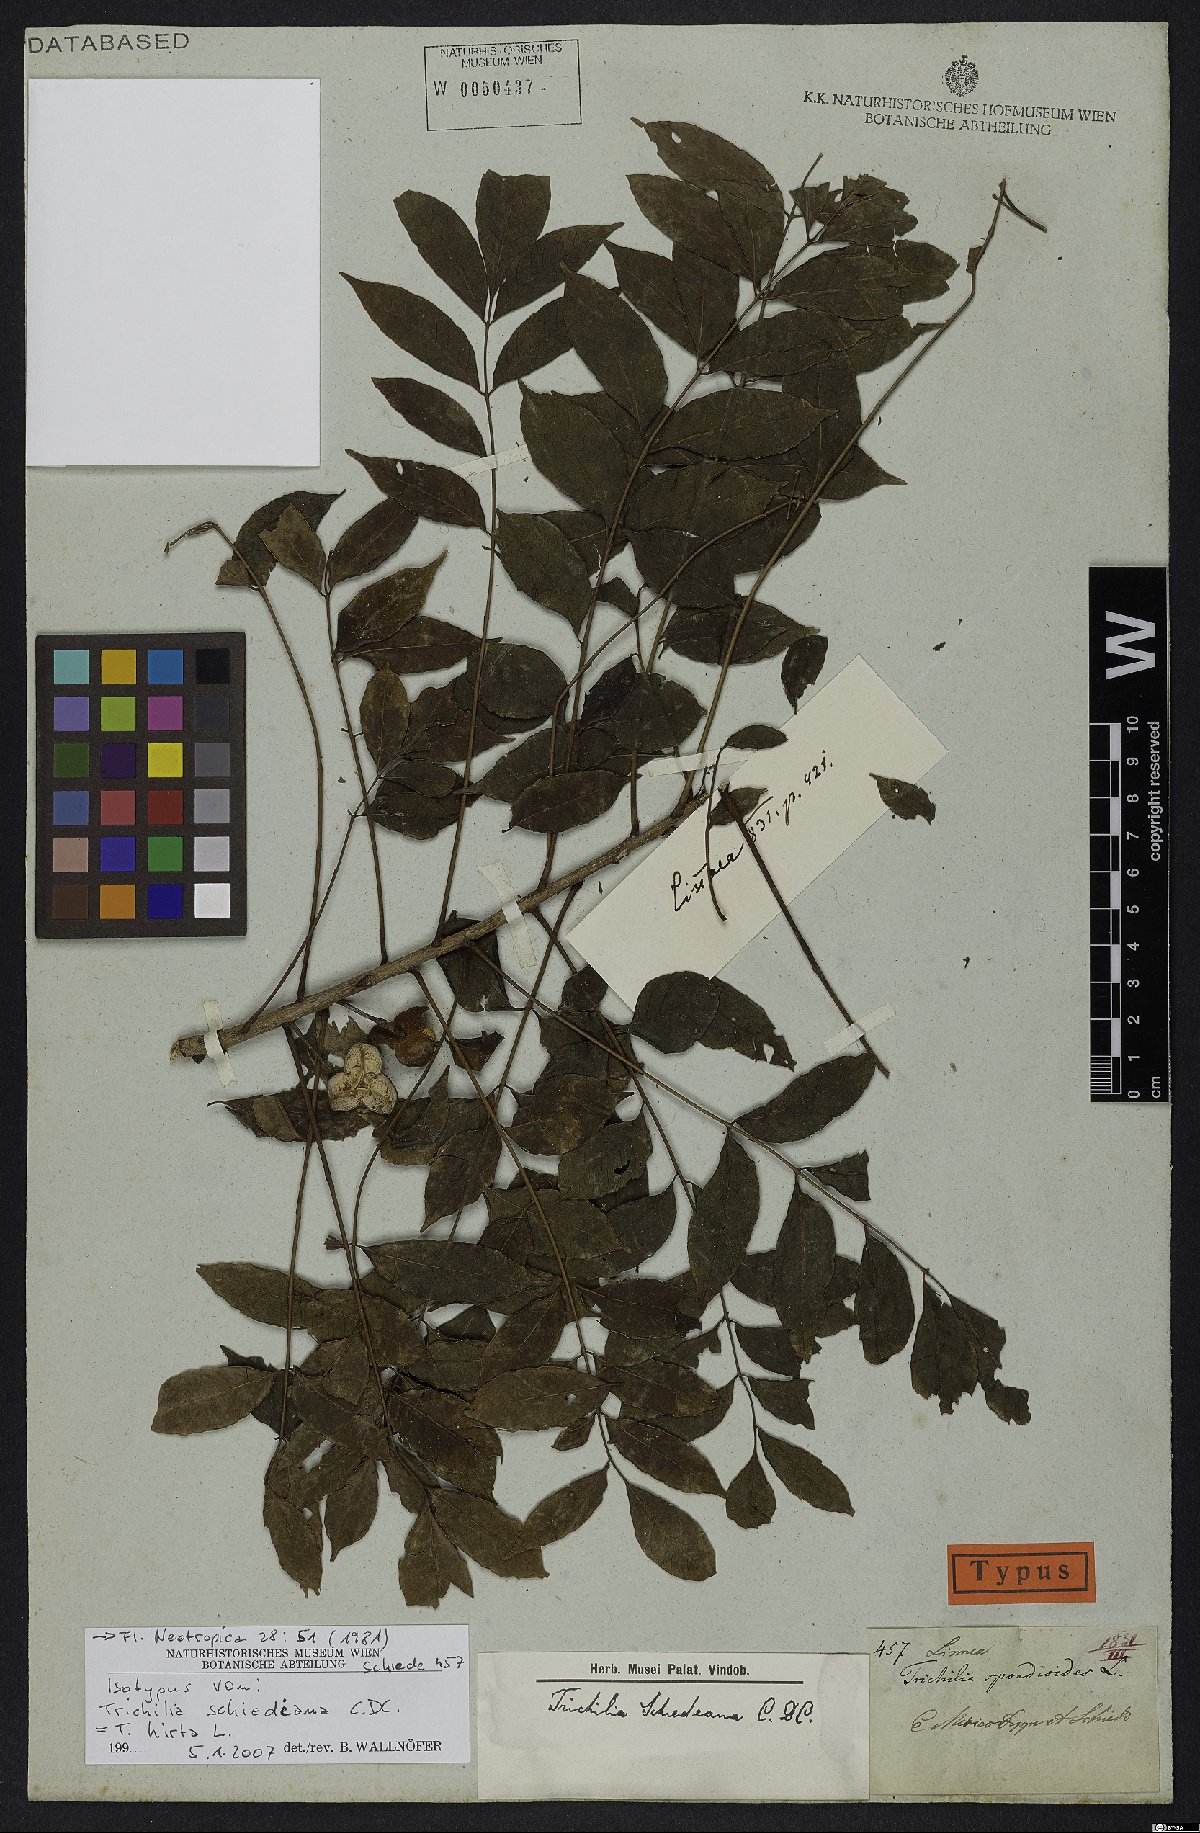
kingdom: Plantae
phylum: Tracheophyta
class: Magnoliopsida
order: Sapindales
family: Meliaceae
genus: Trichilia
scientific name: Trichilia hirta
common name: Red-cedar
